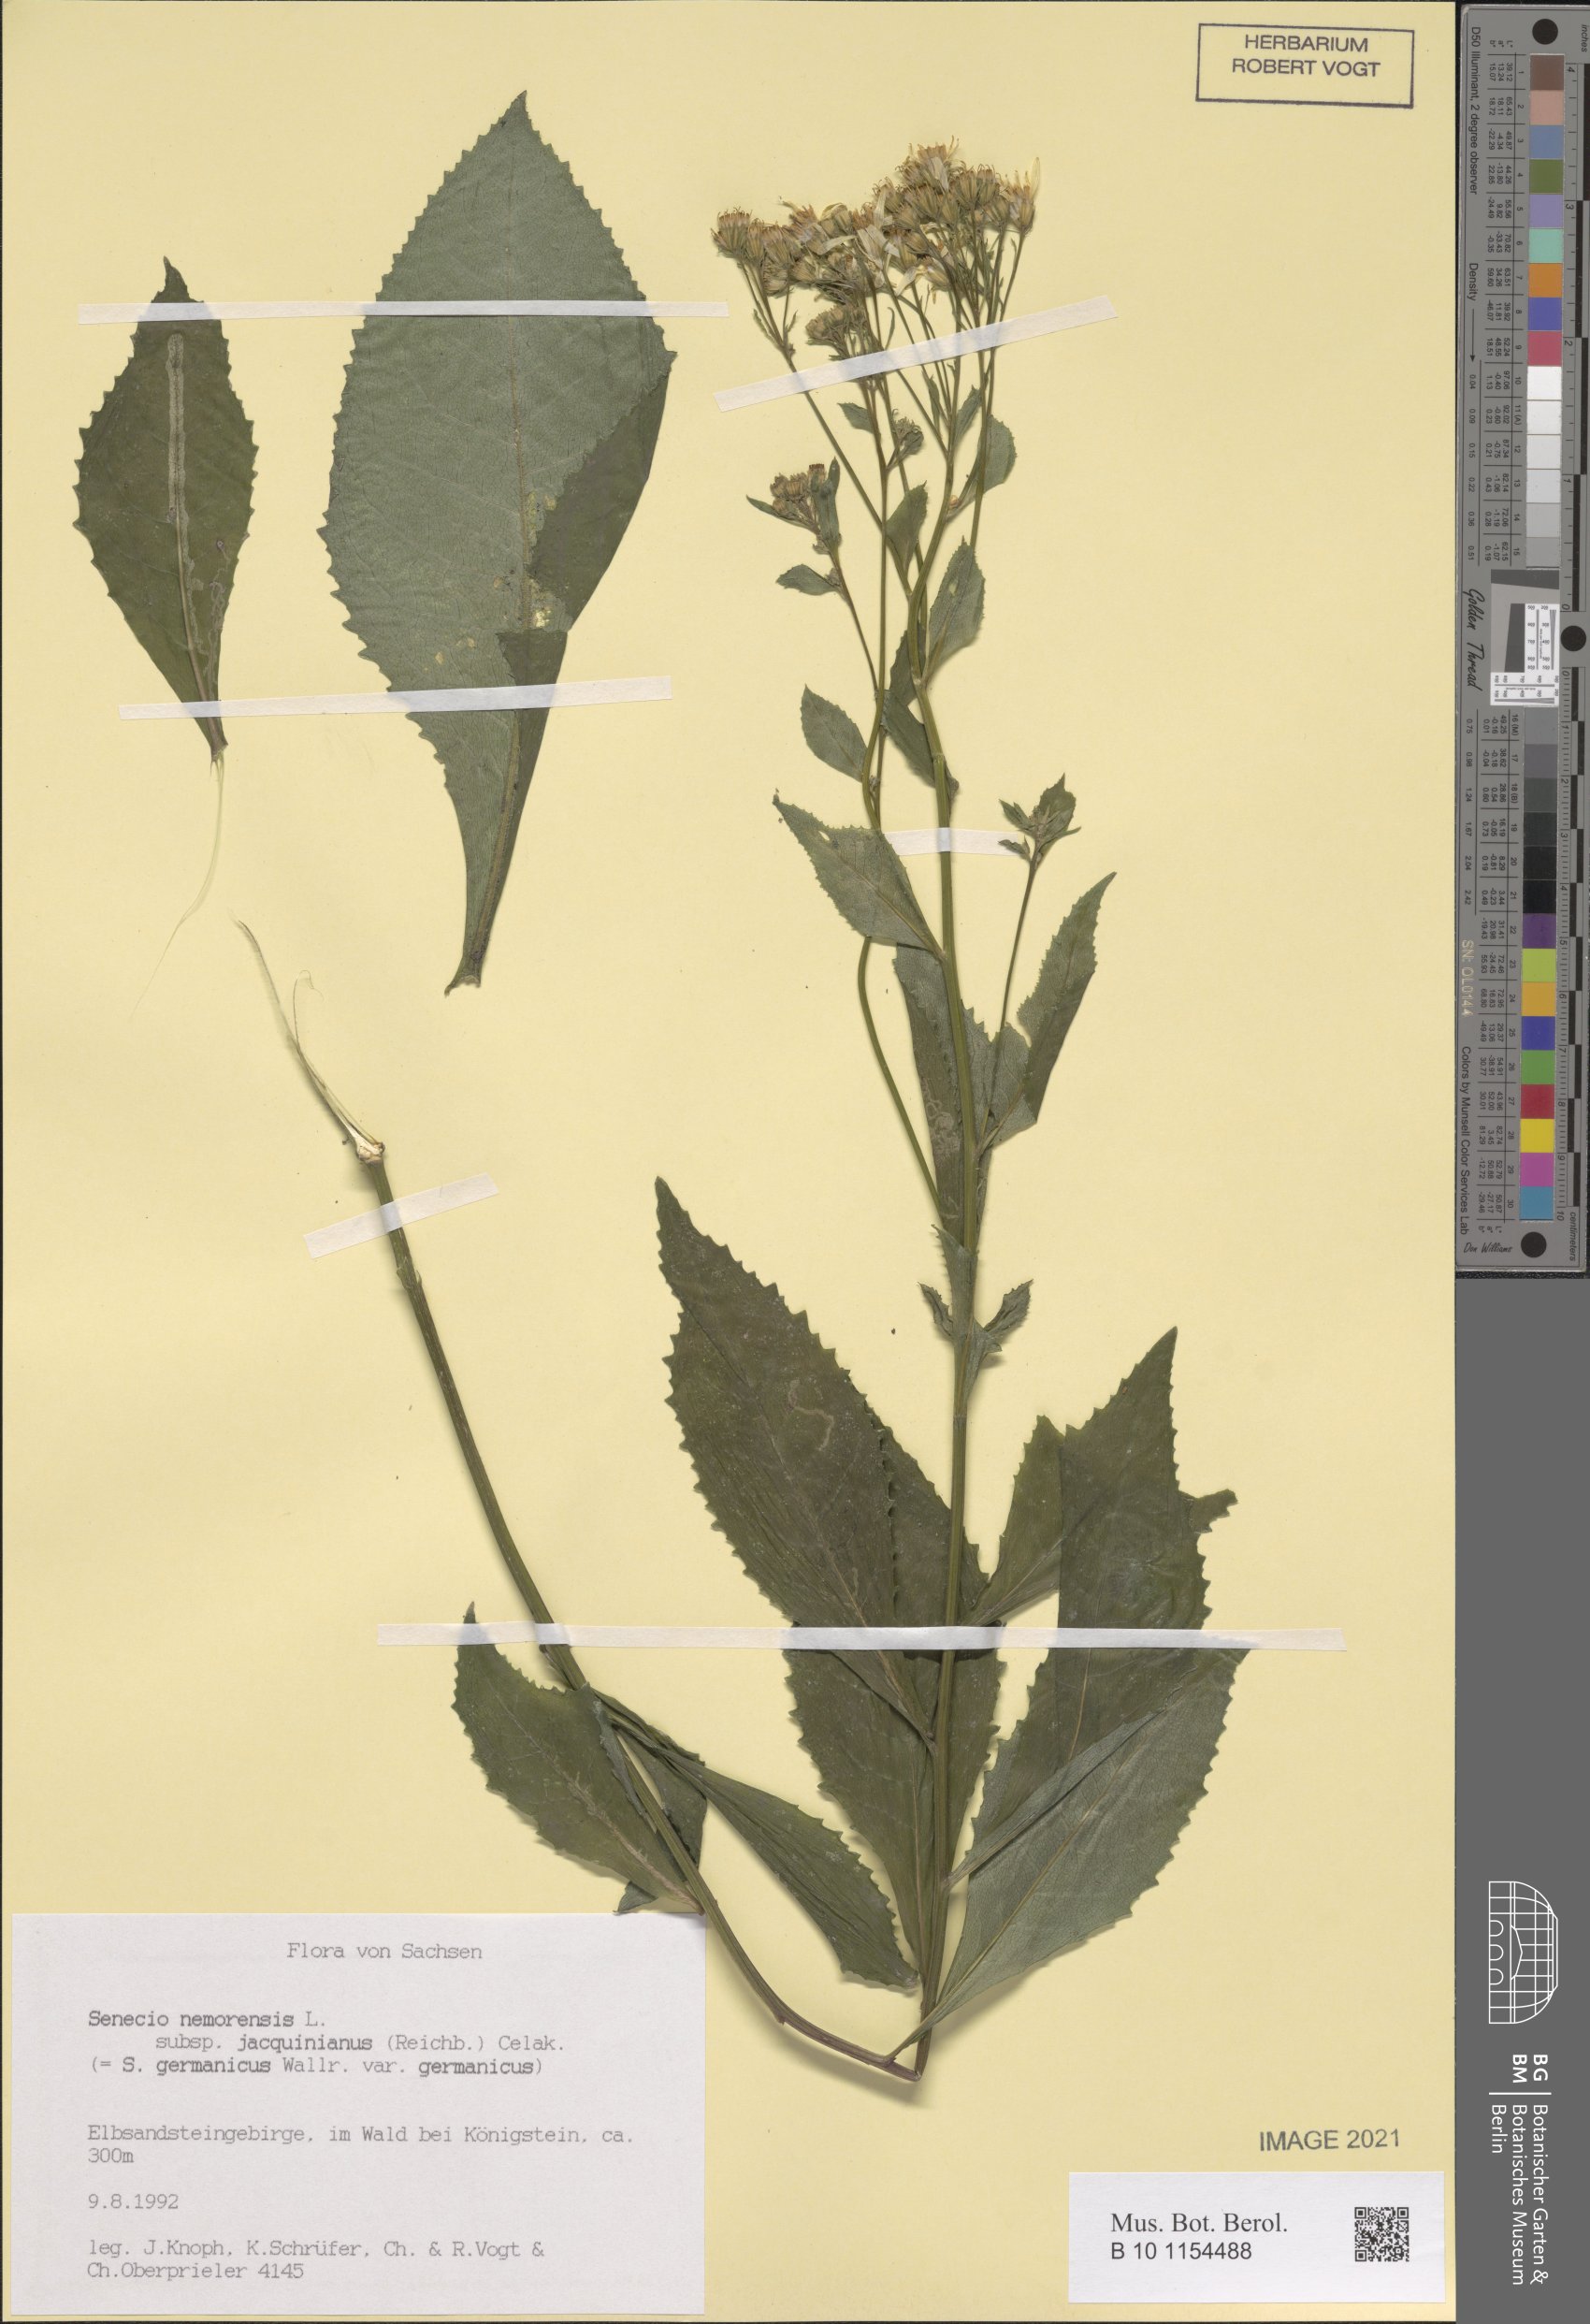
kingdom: Plantae
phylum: Tracheophyta
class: Magnoliopsida
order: Asterales
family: Asteraceae
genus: Senecio
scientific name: Senecio germanicus
